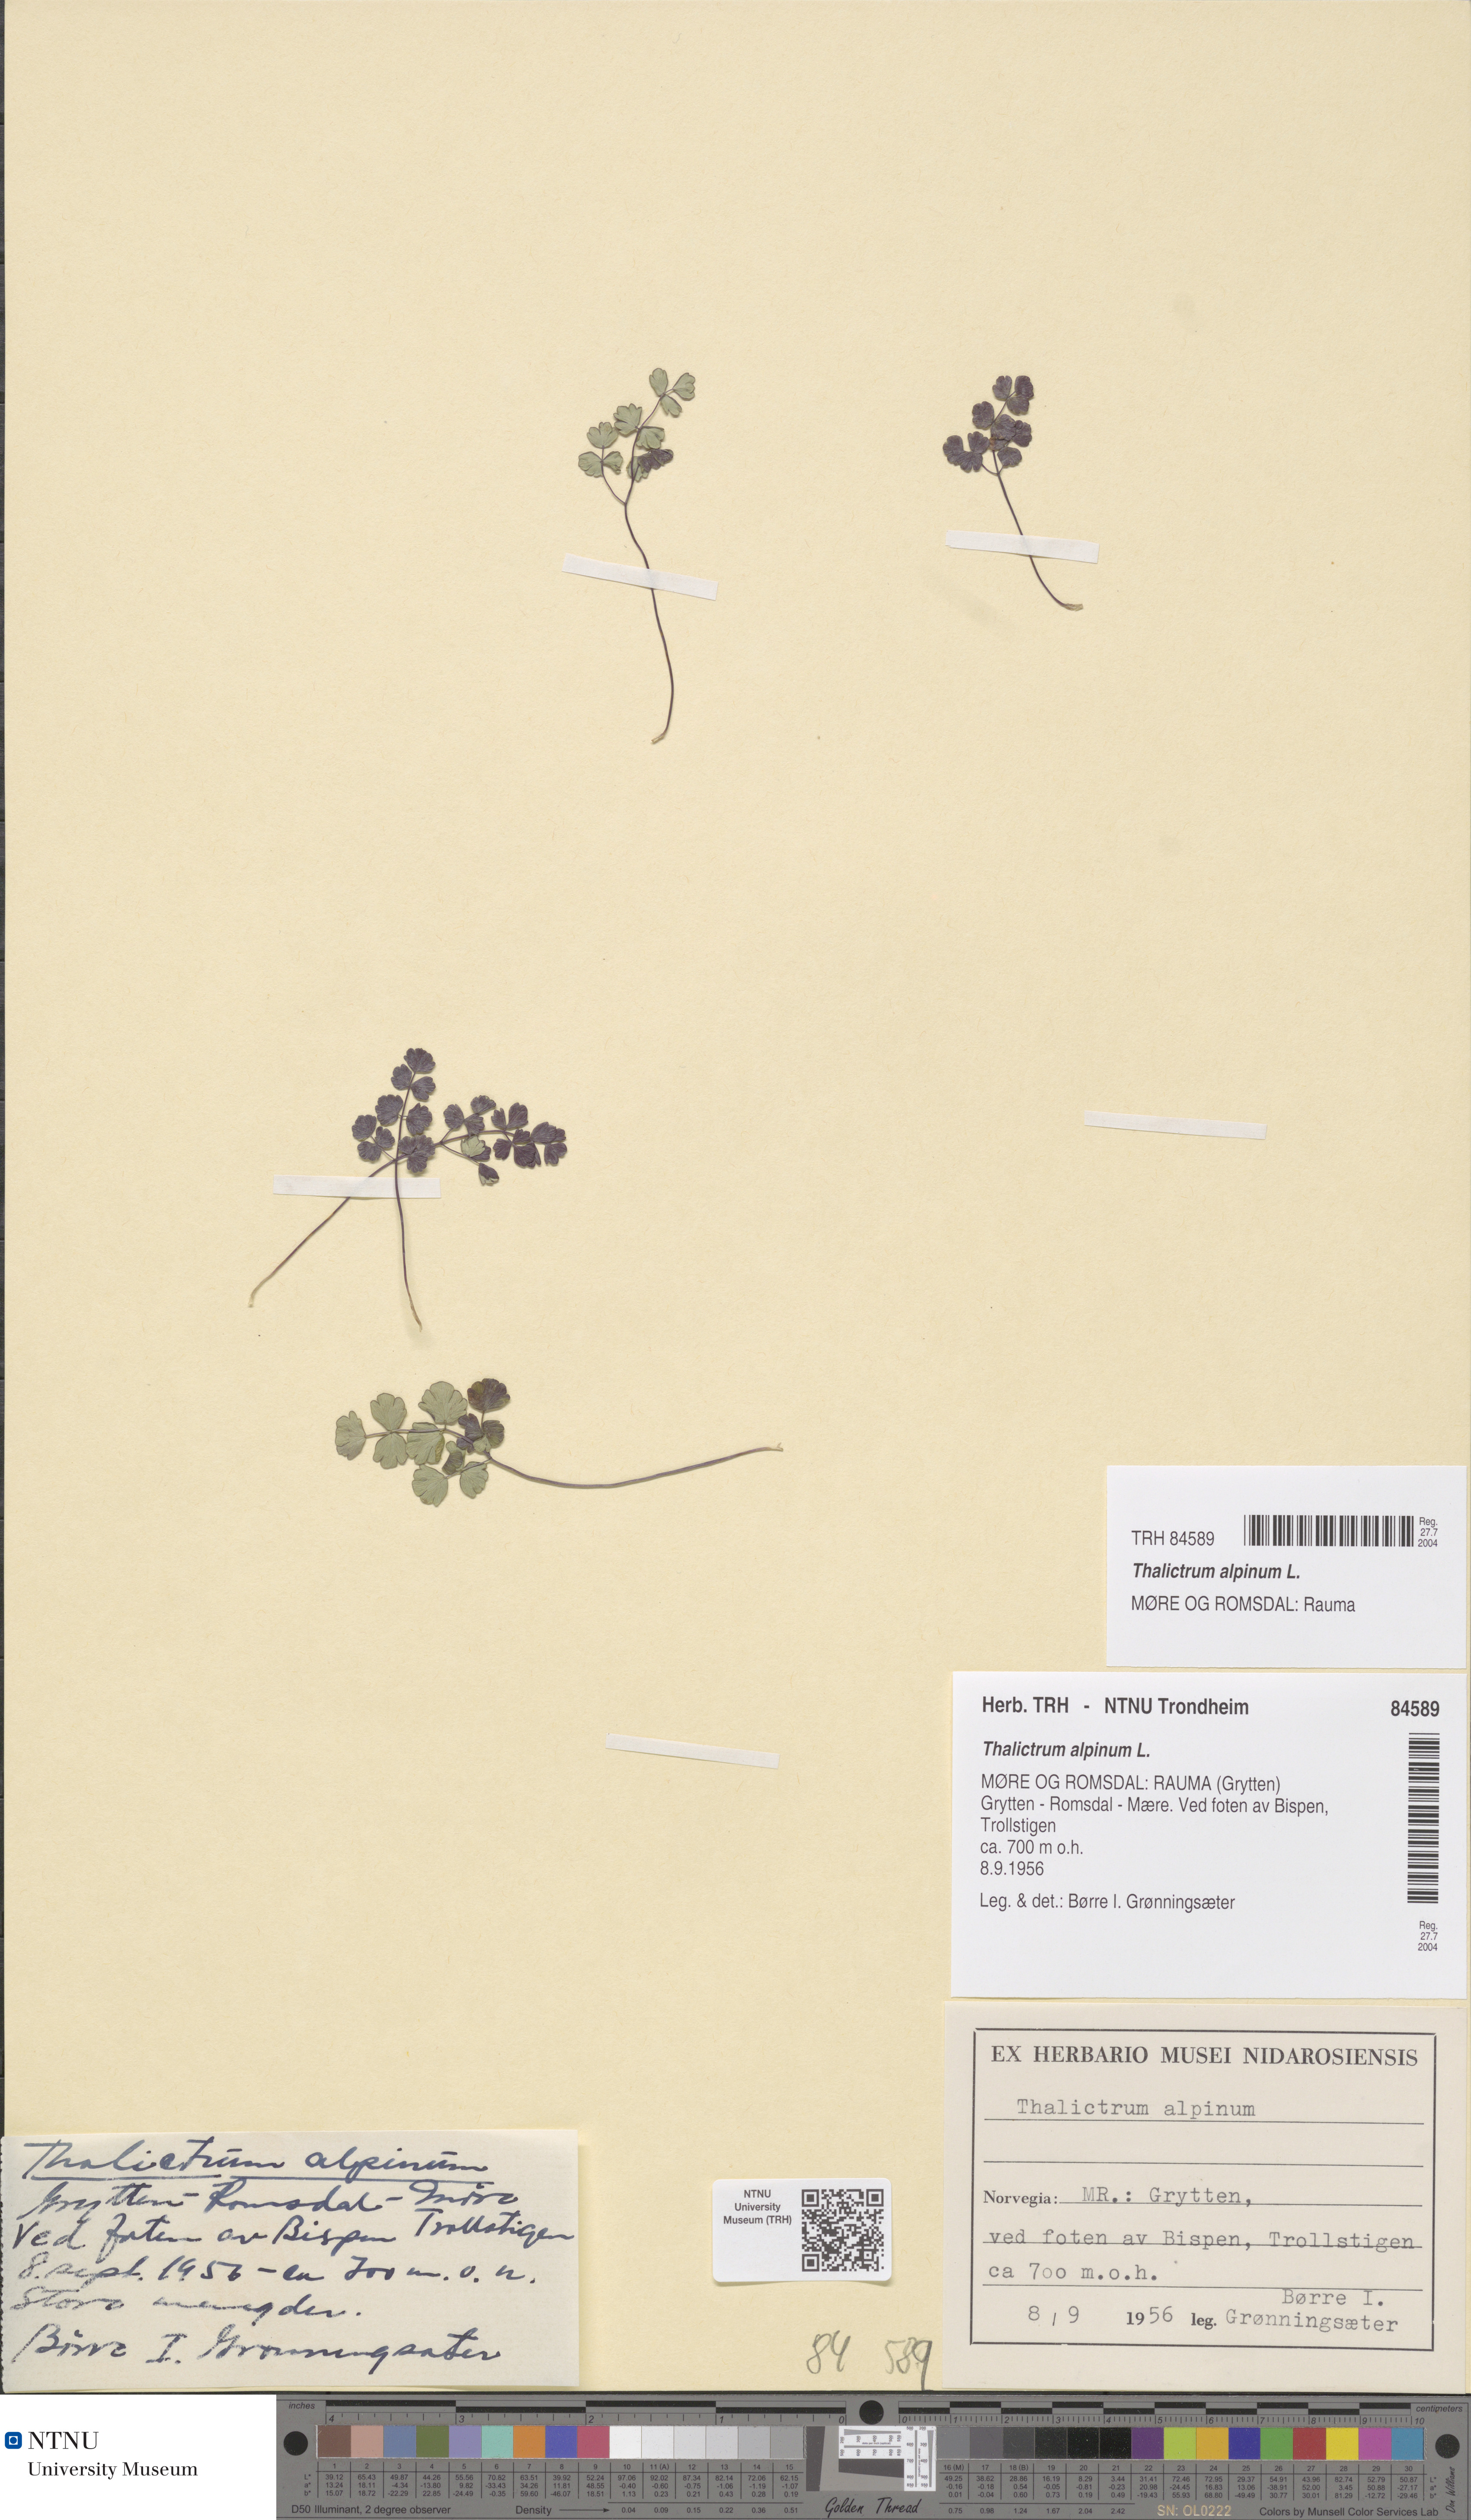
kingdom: Plantae
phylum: Tracheophyta
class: Magnoliopsida
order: Ranunculales
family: Ranunculaceae
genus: Thalictrum
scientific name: Thalictrum alpinum
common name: Alpine meadow-rue
